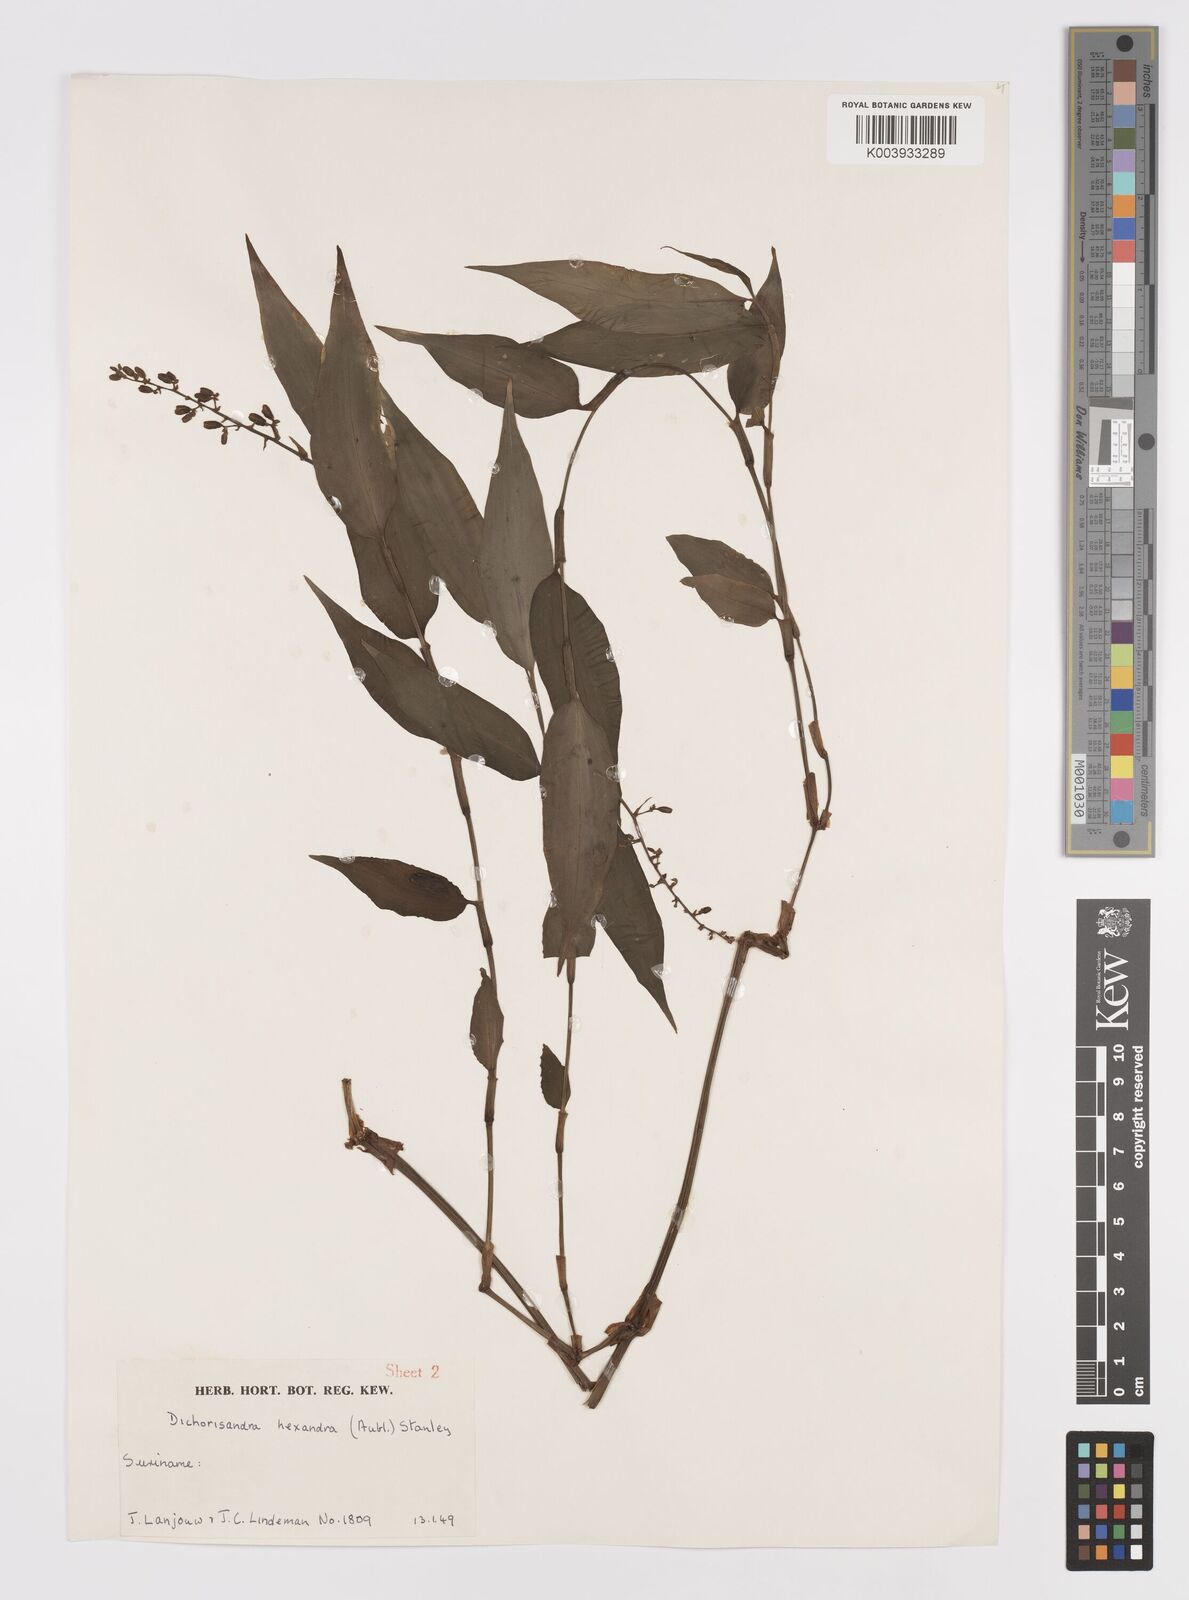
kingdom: Plantae
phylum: Tracheophyta
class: Liliopsida
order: Commelinales
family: Commelinaceae
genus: Dichorisandra
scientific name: Dichorisandra hexandra
